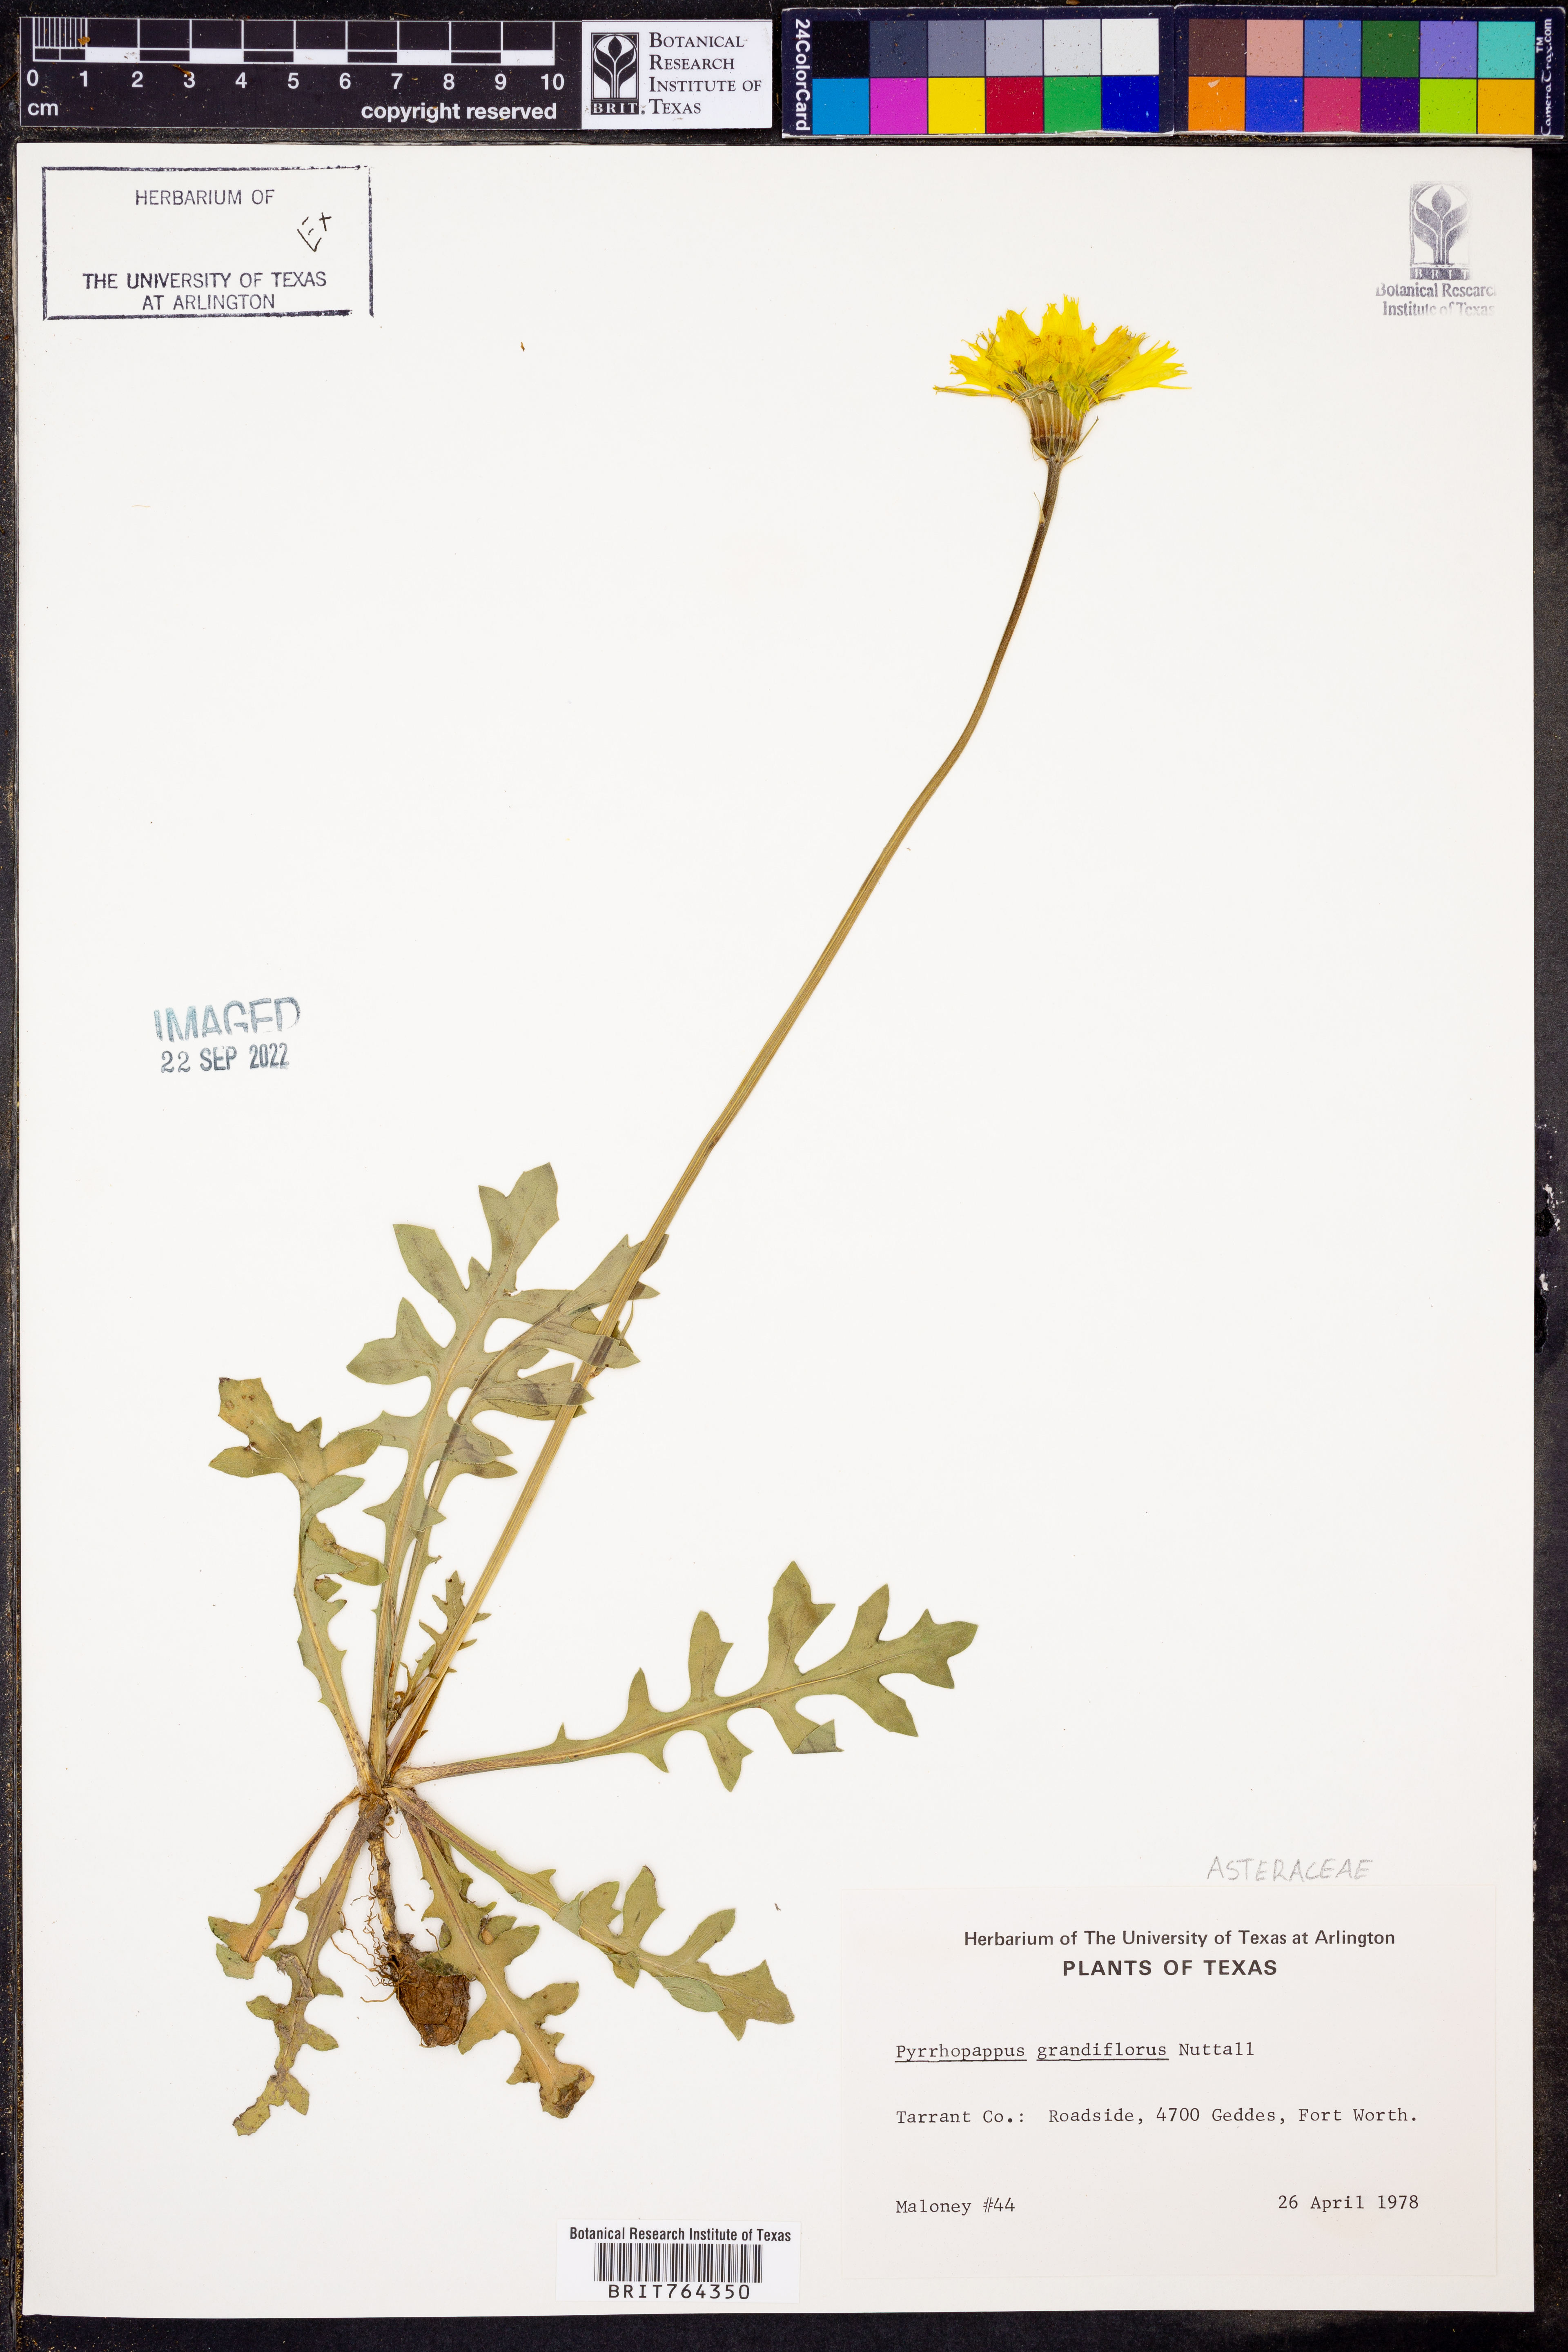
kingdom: Plantae
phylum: Tracheophyta
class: Magnoliopsida
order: Asterales
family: Asteraceae
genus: Pyrrhopappus
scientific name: Pyrrhopappus grandiflorus
